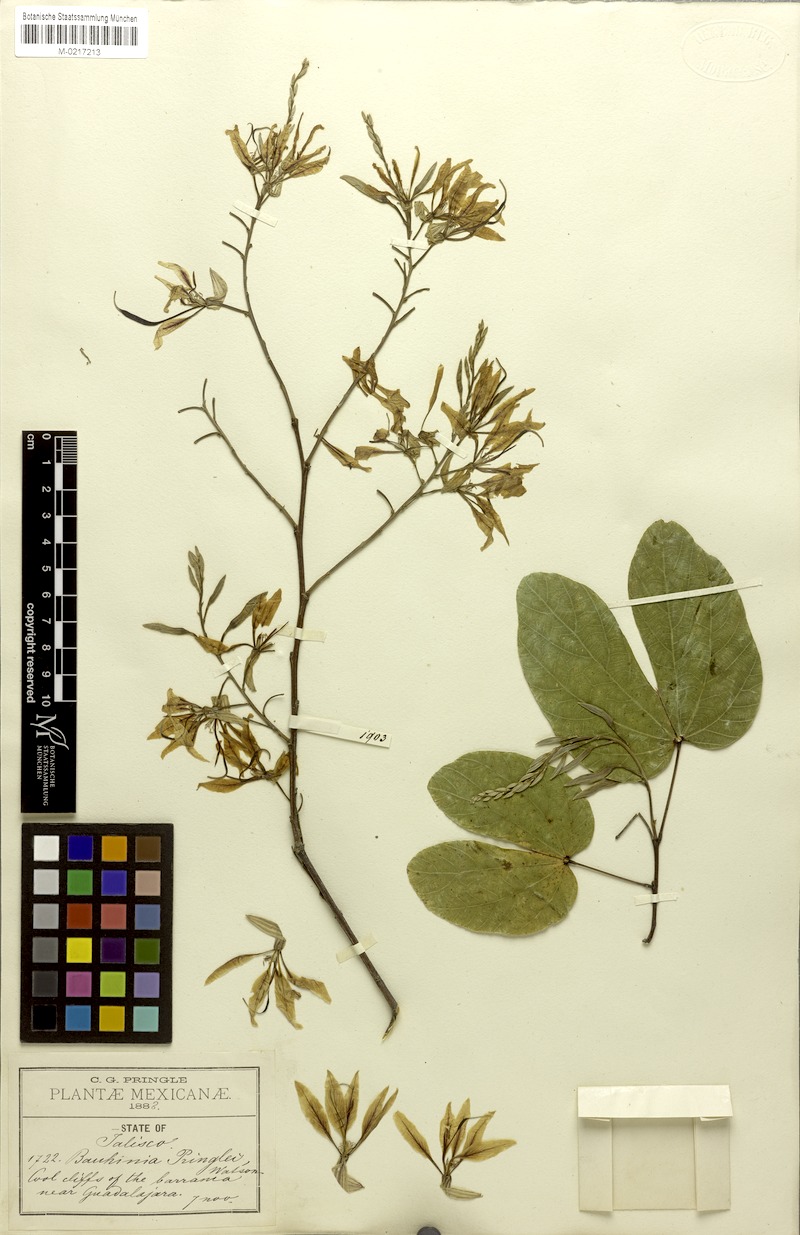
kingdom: Plantae
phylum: Tracheophyta
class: Magnoliopsida
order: Fabales
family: Fabaceae
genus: Bauhinia
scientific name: Bauhinia pringlei
